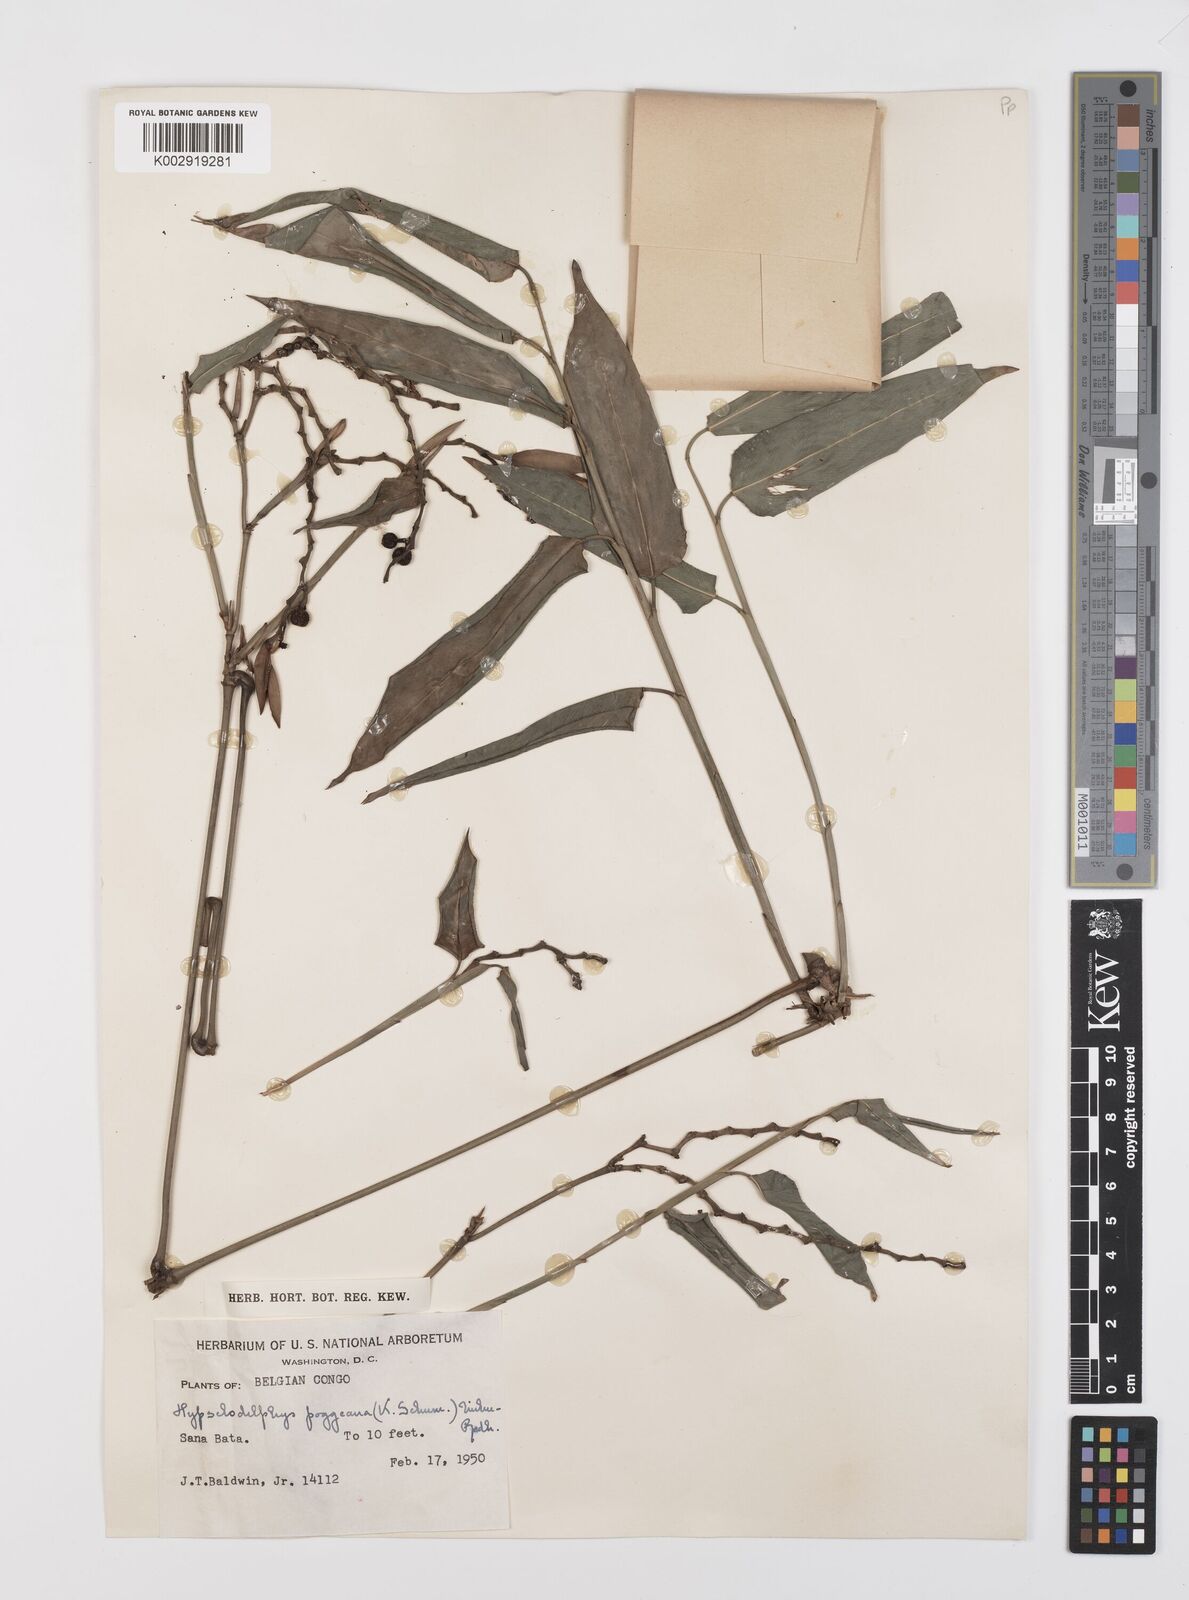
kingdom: Plantae
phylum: Tracheophyta
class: Liliopsida
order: Zingiberales
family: Marantaceae
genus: Hypselodelphys
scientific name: Hypselodelphys poggeana
